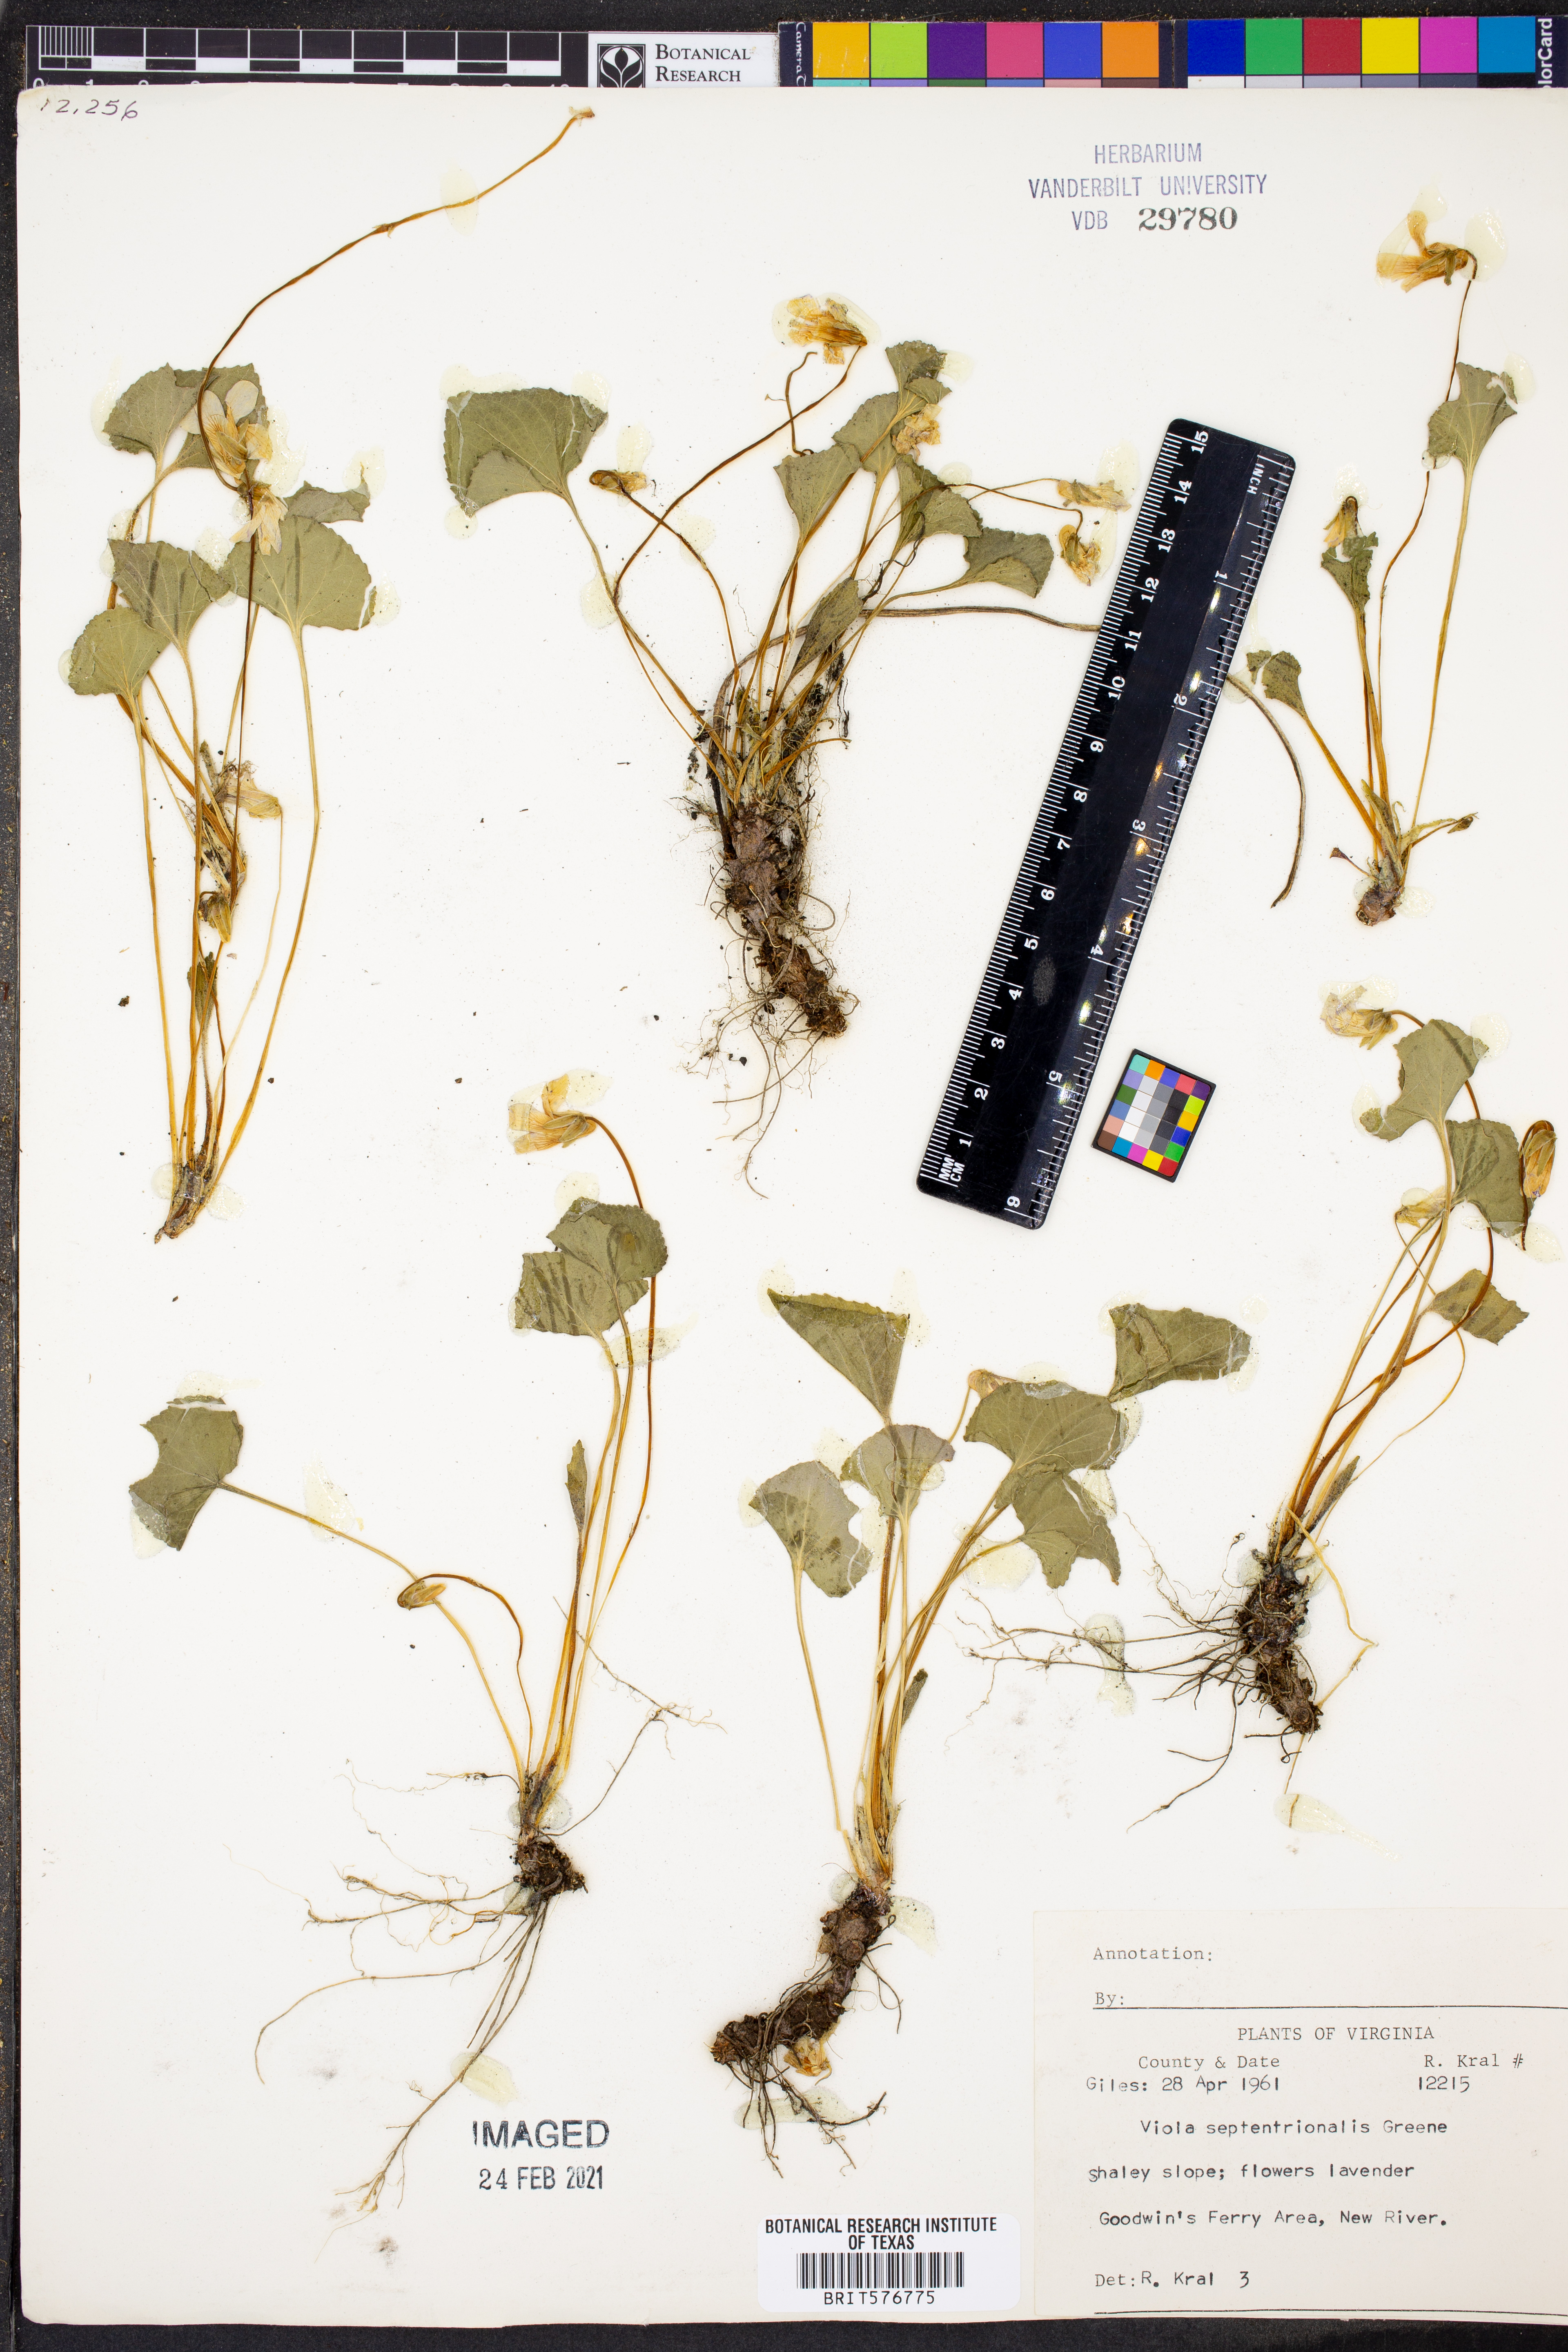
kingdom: Plantae
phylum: Tracheophyta
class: Magnoliopsida
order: Malpighiales
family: Violaceae
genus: Viola
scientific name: Viola septentrionalis
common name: Northern woodland violet
